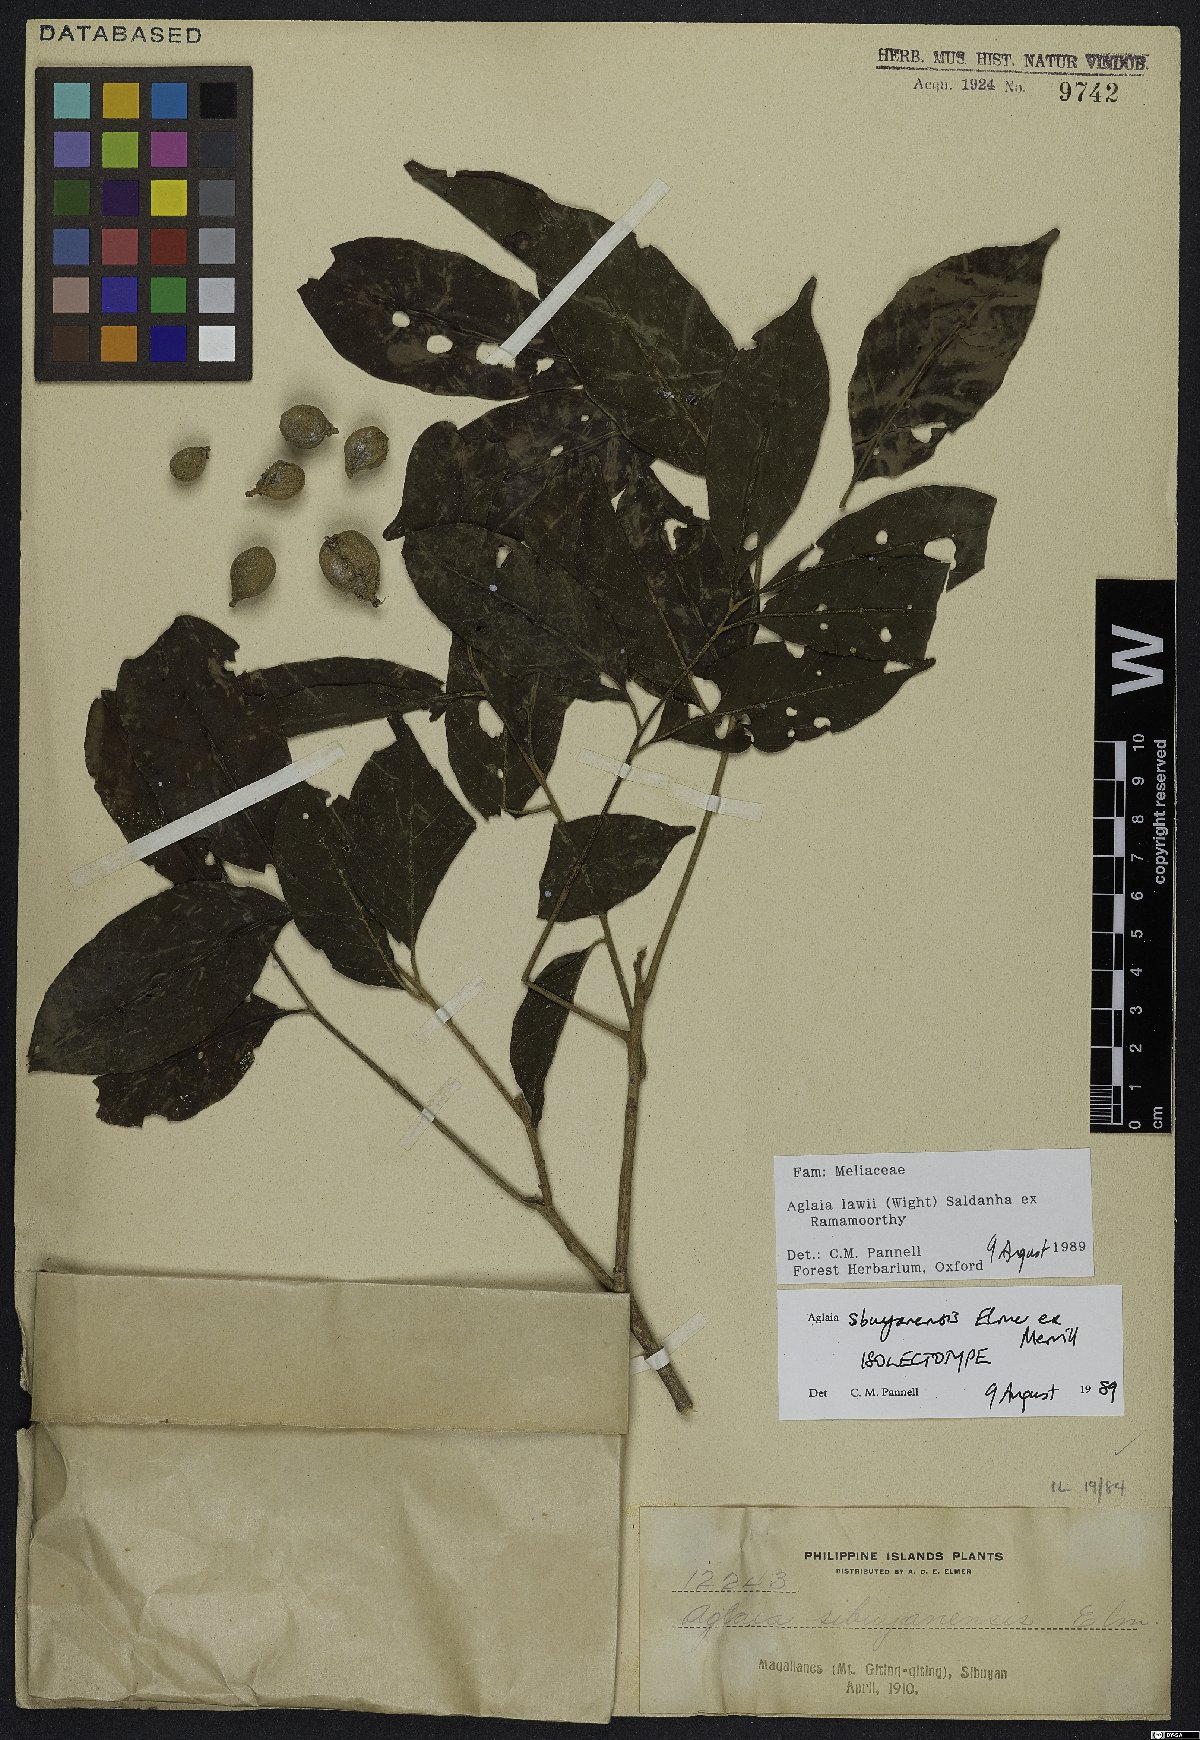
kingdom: Plantae
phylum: Tracheophyta
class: Magnoliopsida
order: Sapindales
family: Meliaceae
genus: Aglaia
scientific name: Aglaia lawii
